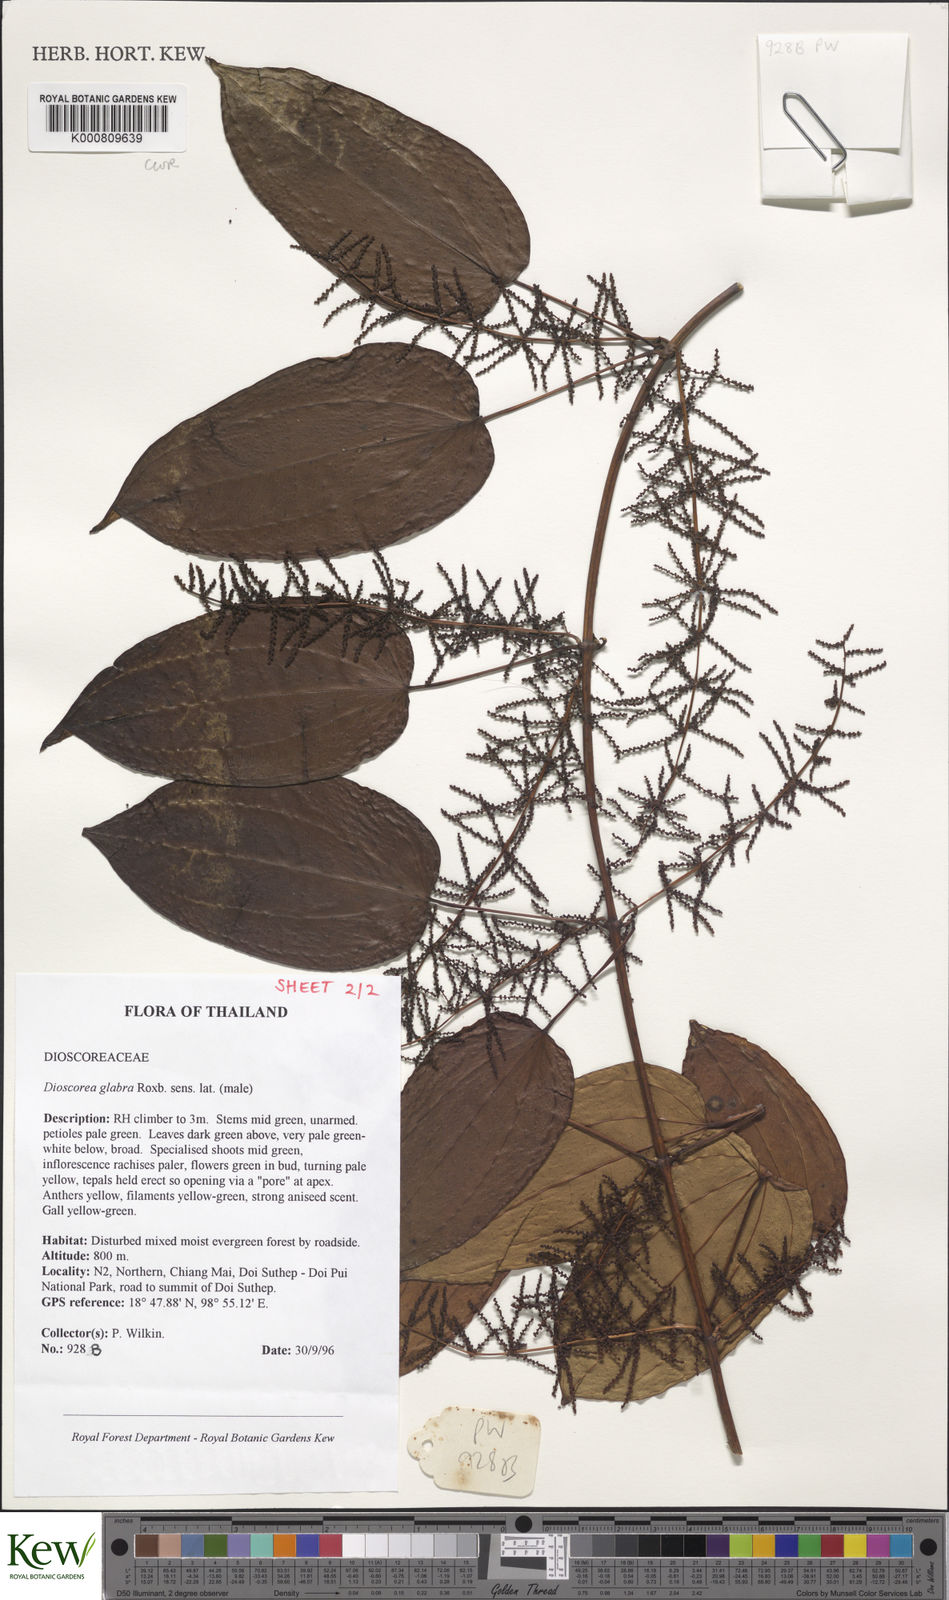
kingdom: Plantae
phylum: Tracheophyta
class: Liliopsida
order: Dioscoreales
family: Dioscoreaceae
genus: Dioscorea
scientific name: Dioscorea glabra
